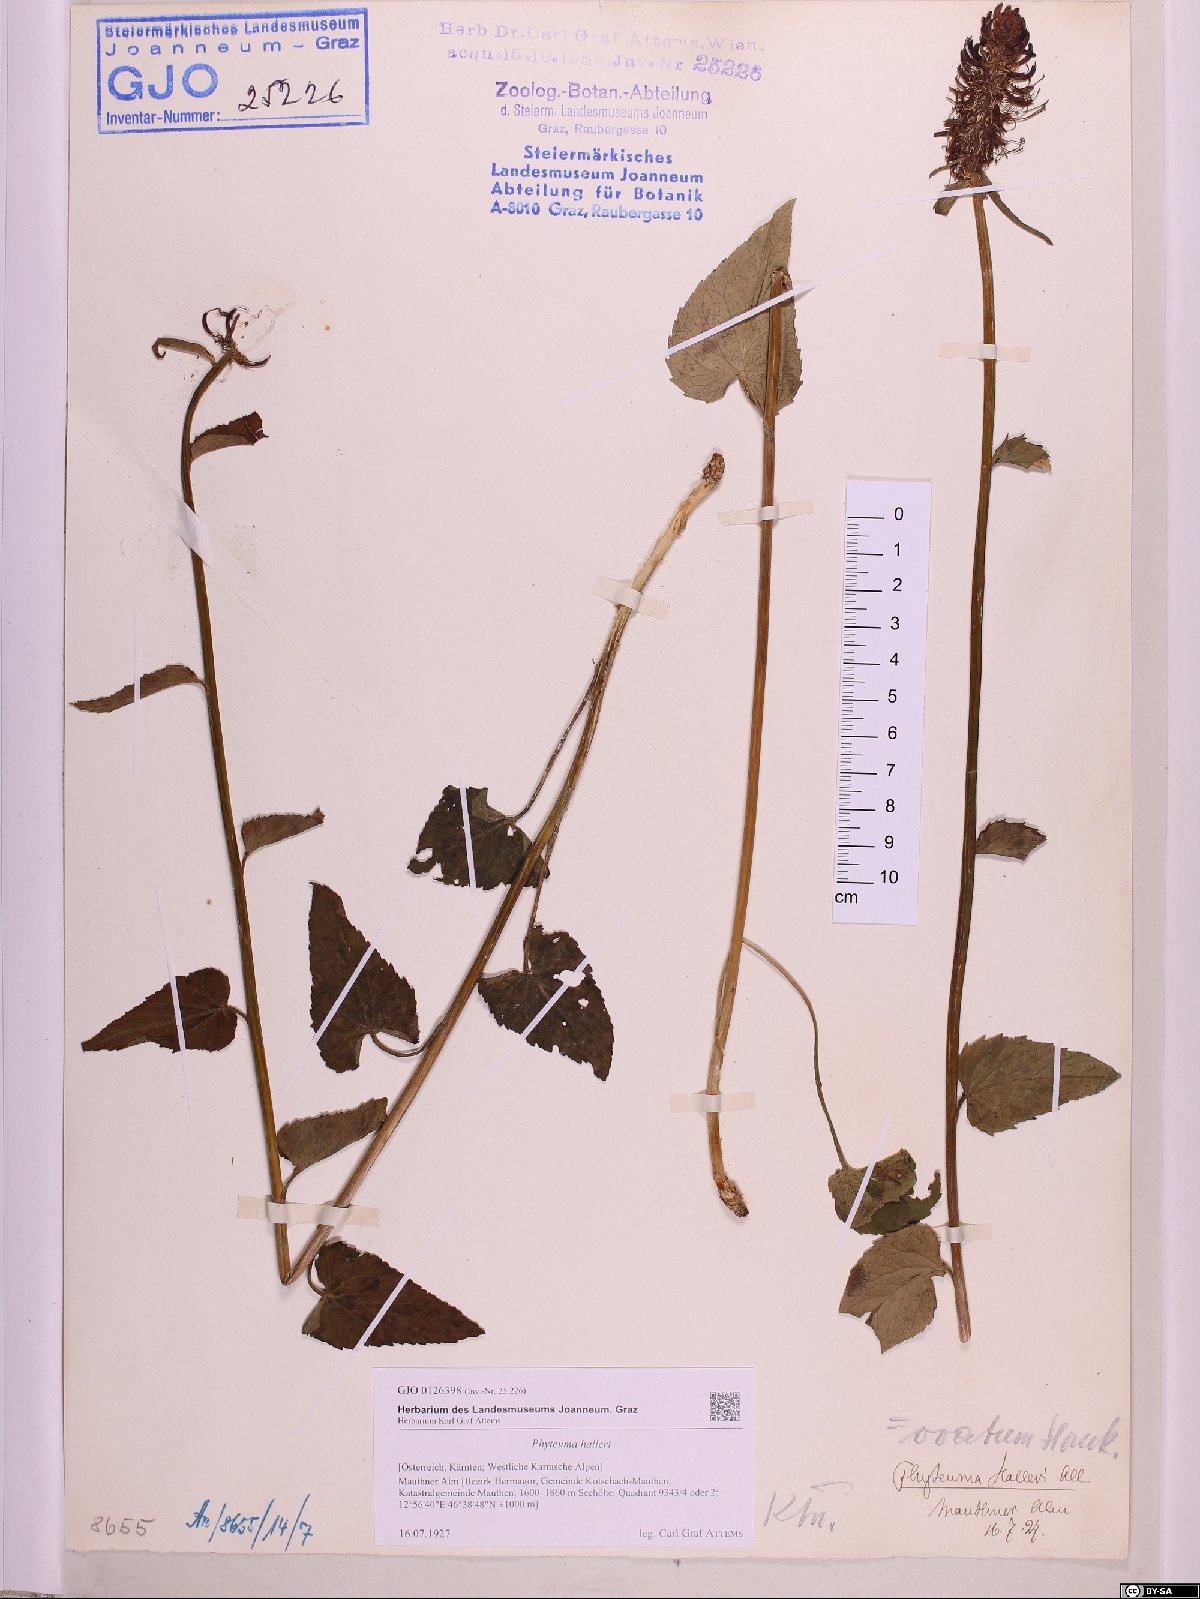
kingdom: Plantae
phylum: Tracheophyta
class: Magnoliopsida
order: Asterales
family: Campanulaceae
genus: Phyteuma
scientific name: Phyteuma ovatum
